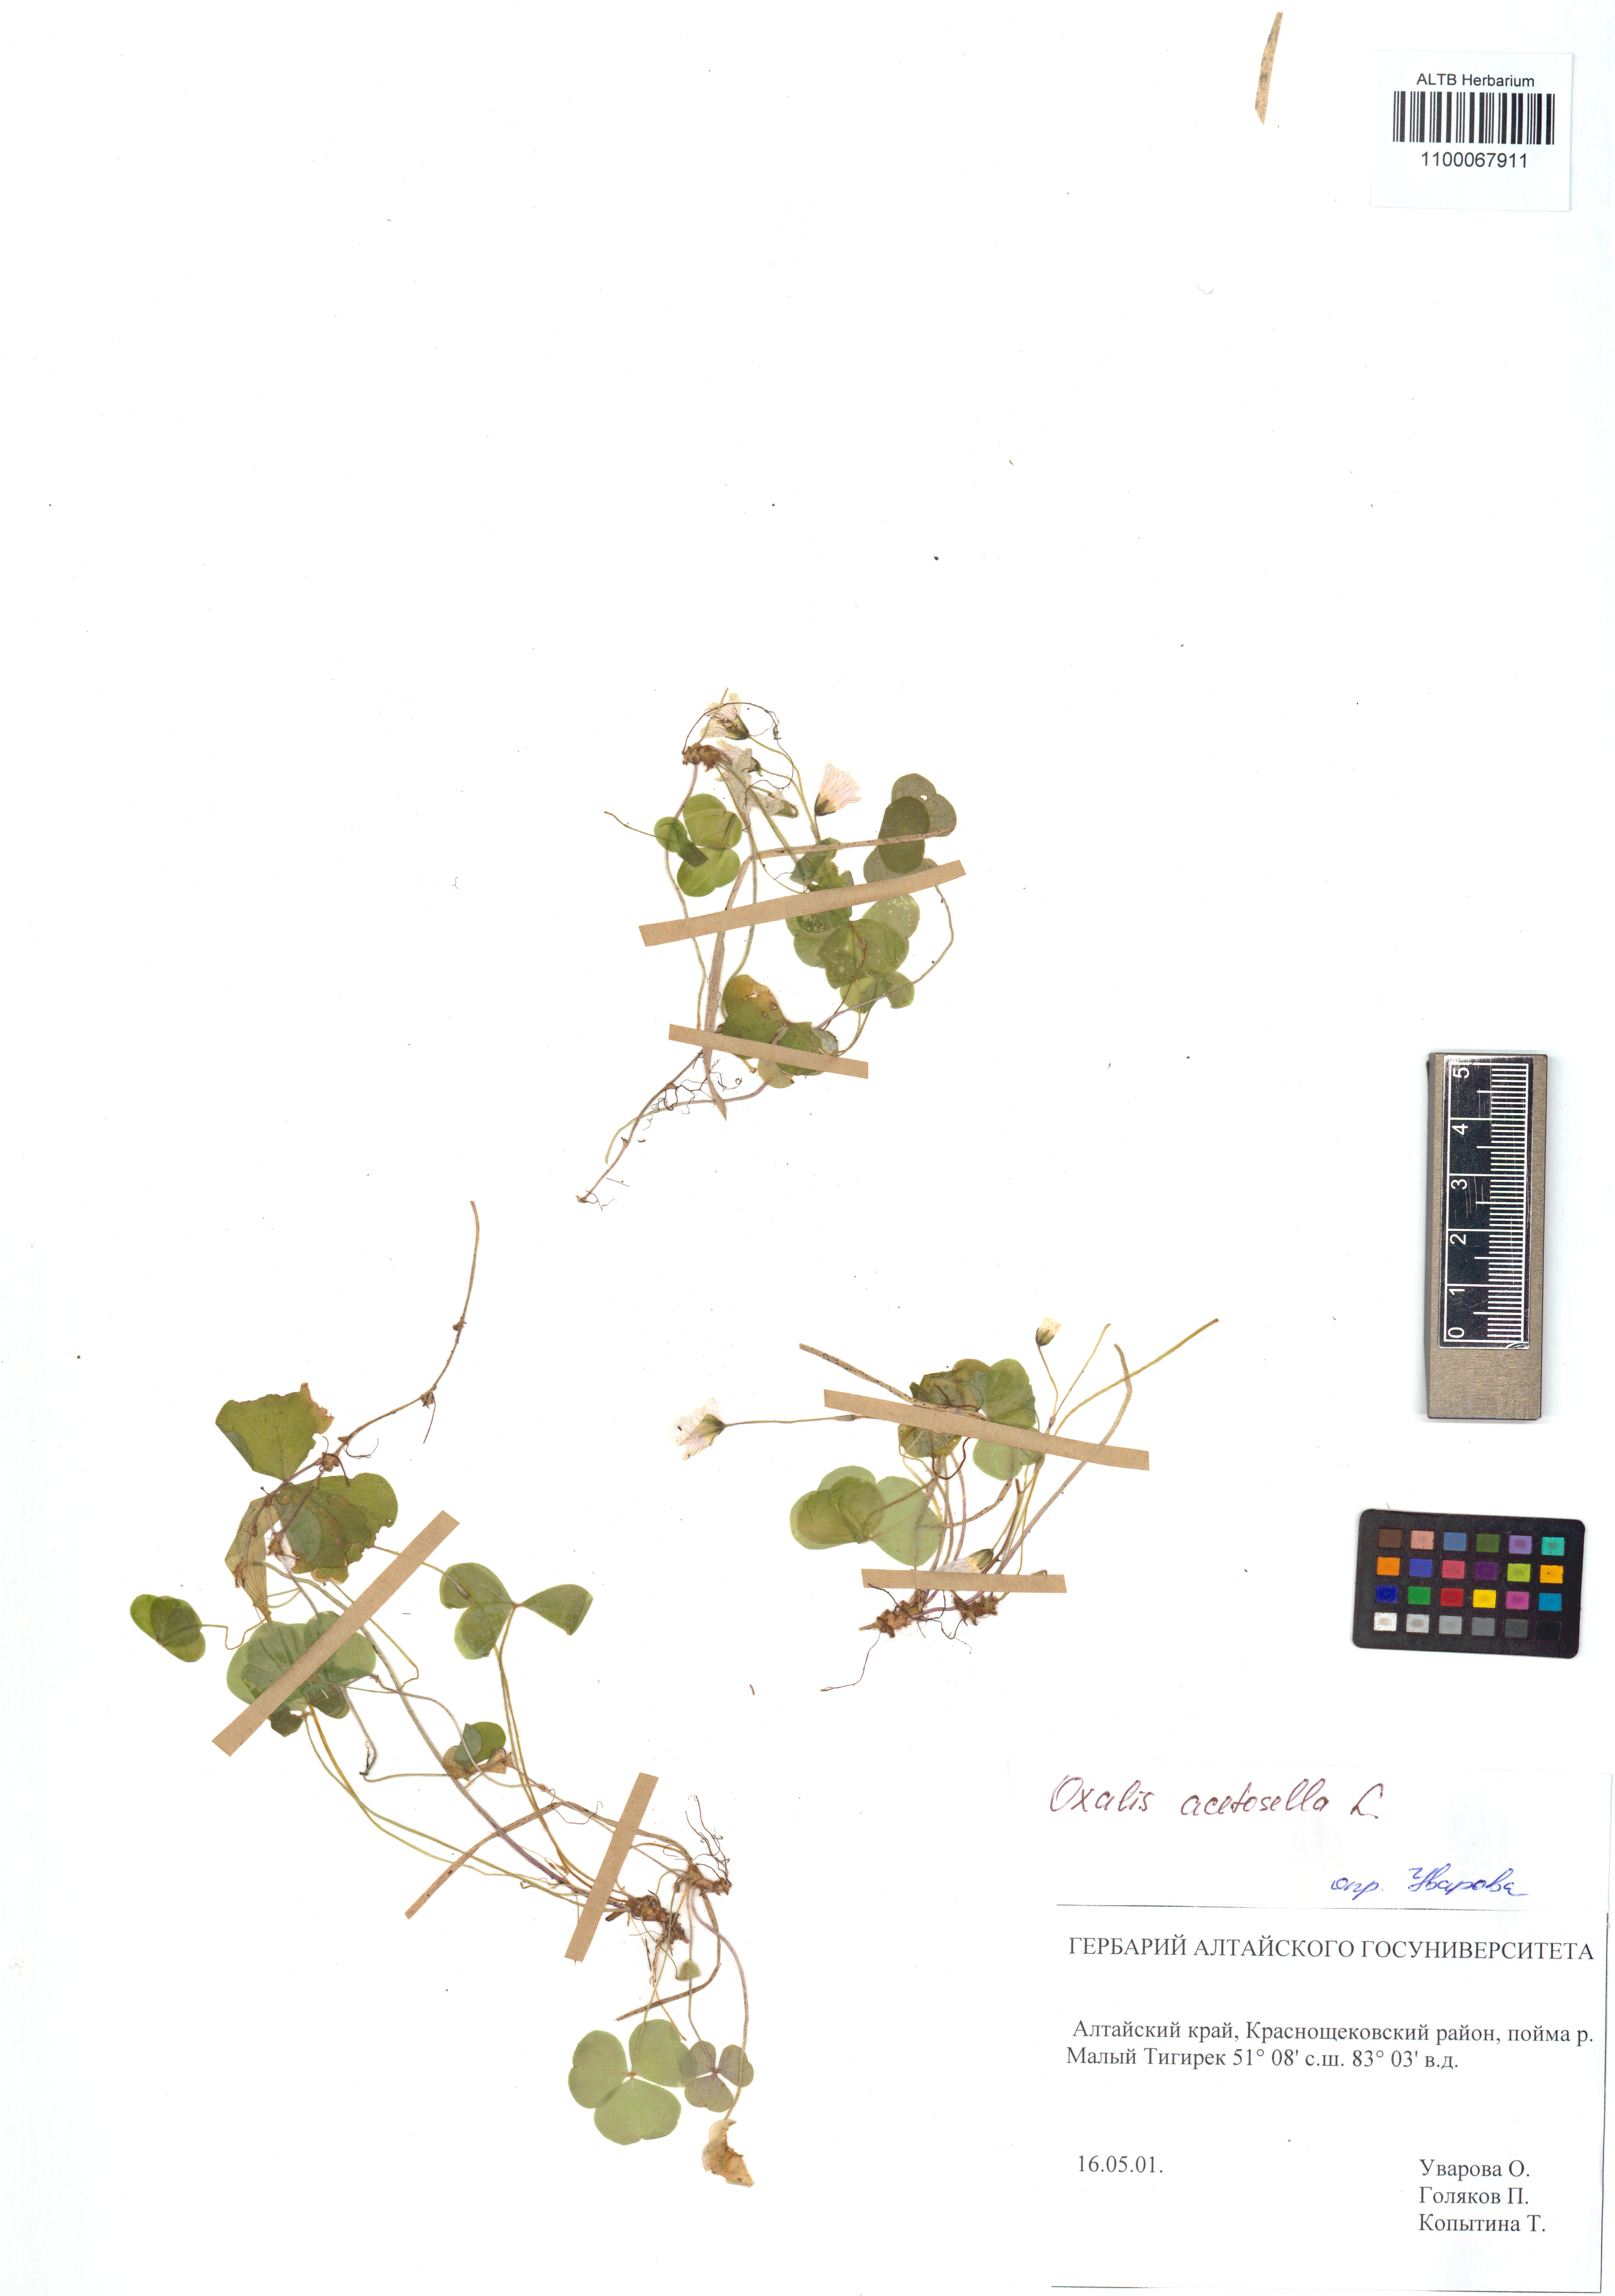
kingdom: Plantae
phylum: Tracheophyta
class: Magnoliopsida
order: Oxalidales
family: Oxalidaceae
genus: Oxalis
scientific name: Oxalis acetosella
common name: Wood-sorrel
